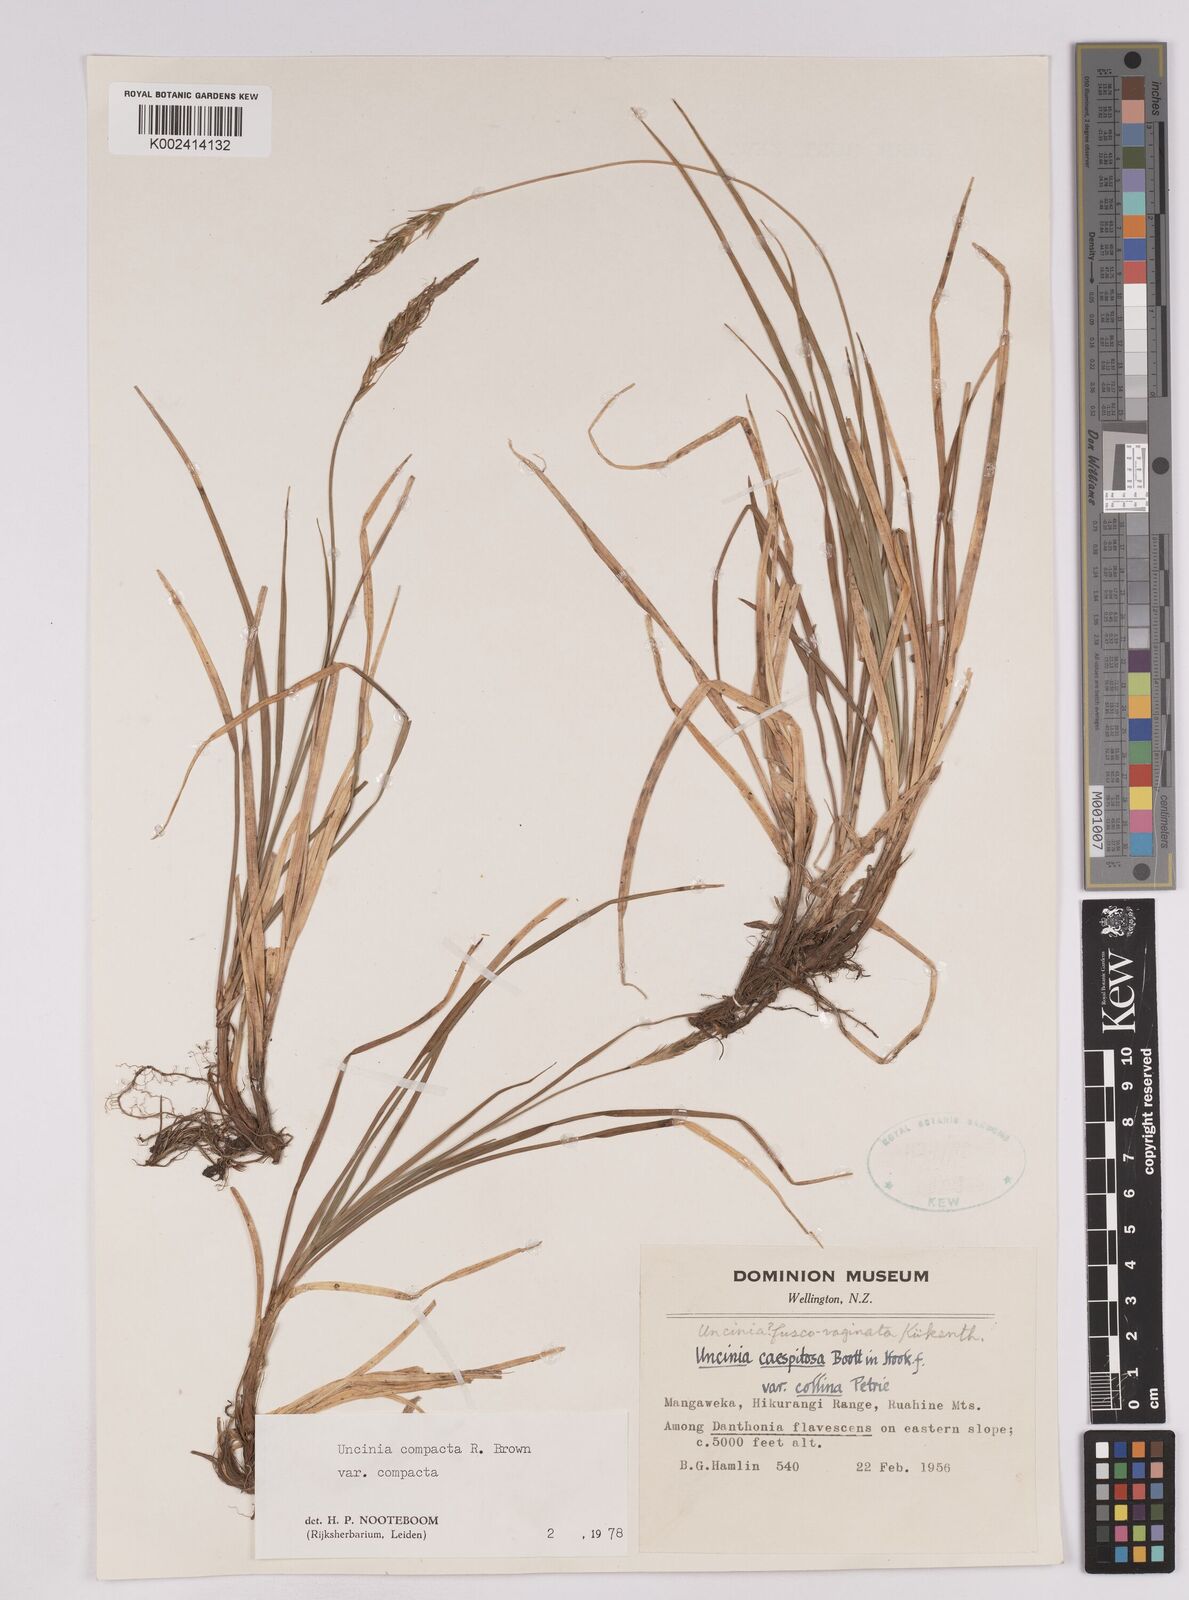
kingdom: Plantae
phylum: Tracheophyta
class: Liliopsida
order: Poales
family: Cyperaceae
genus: Carex
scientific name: Carex austrocompacta
